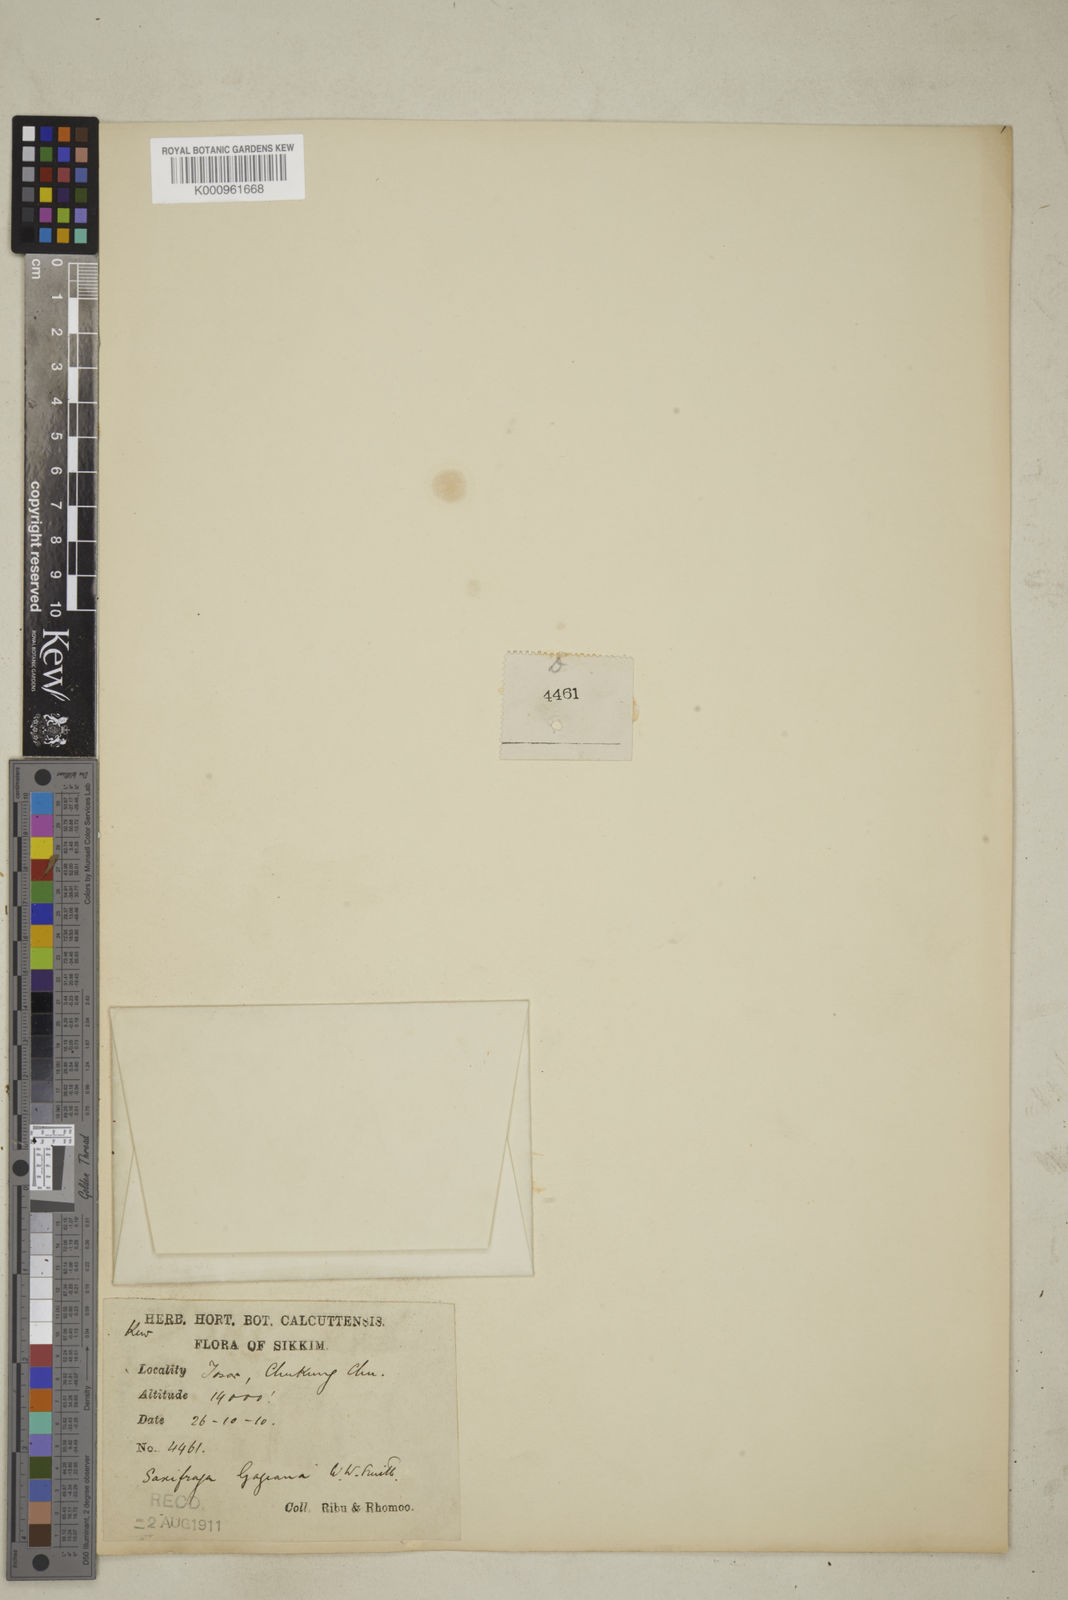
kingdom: Plantae
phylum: Tracheophyta
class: Magnoliopsida
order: Saxifragales
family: Saxifragaceae
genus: Micranthes
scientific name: Micranthes gageana
